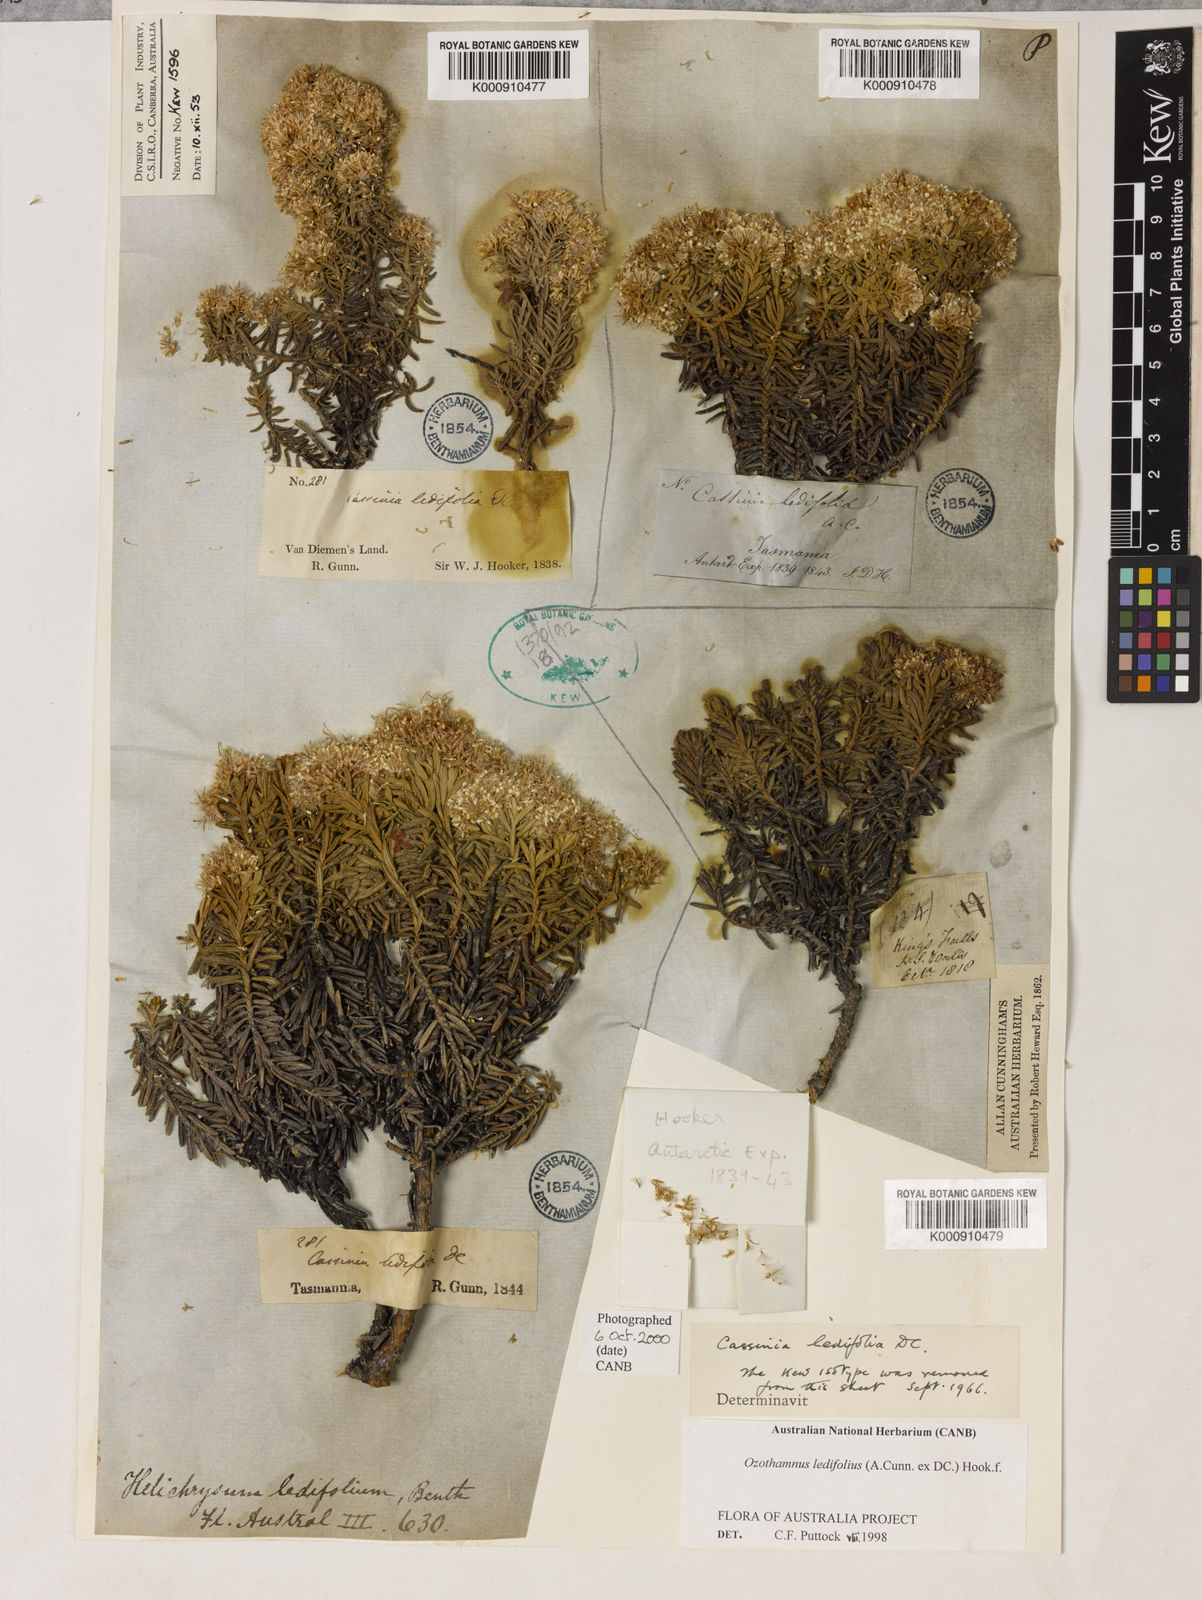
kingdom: Plantae
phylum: Tracheophyta
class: Magnoliopsida
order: Asterales
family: Asteraceae
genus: Ozothamnus
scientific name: Ozothamnus ledifolius
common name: Kerosene-weed
